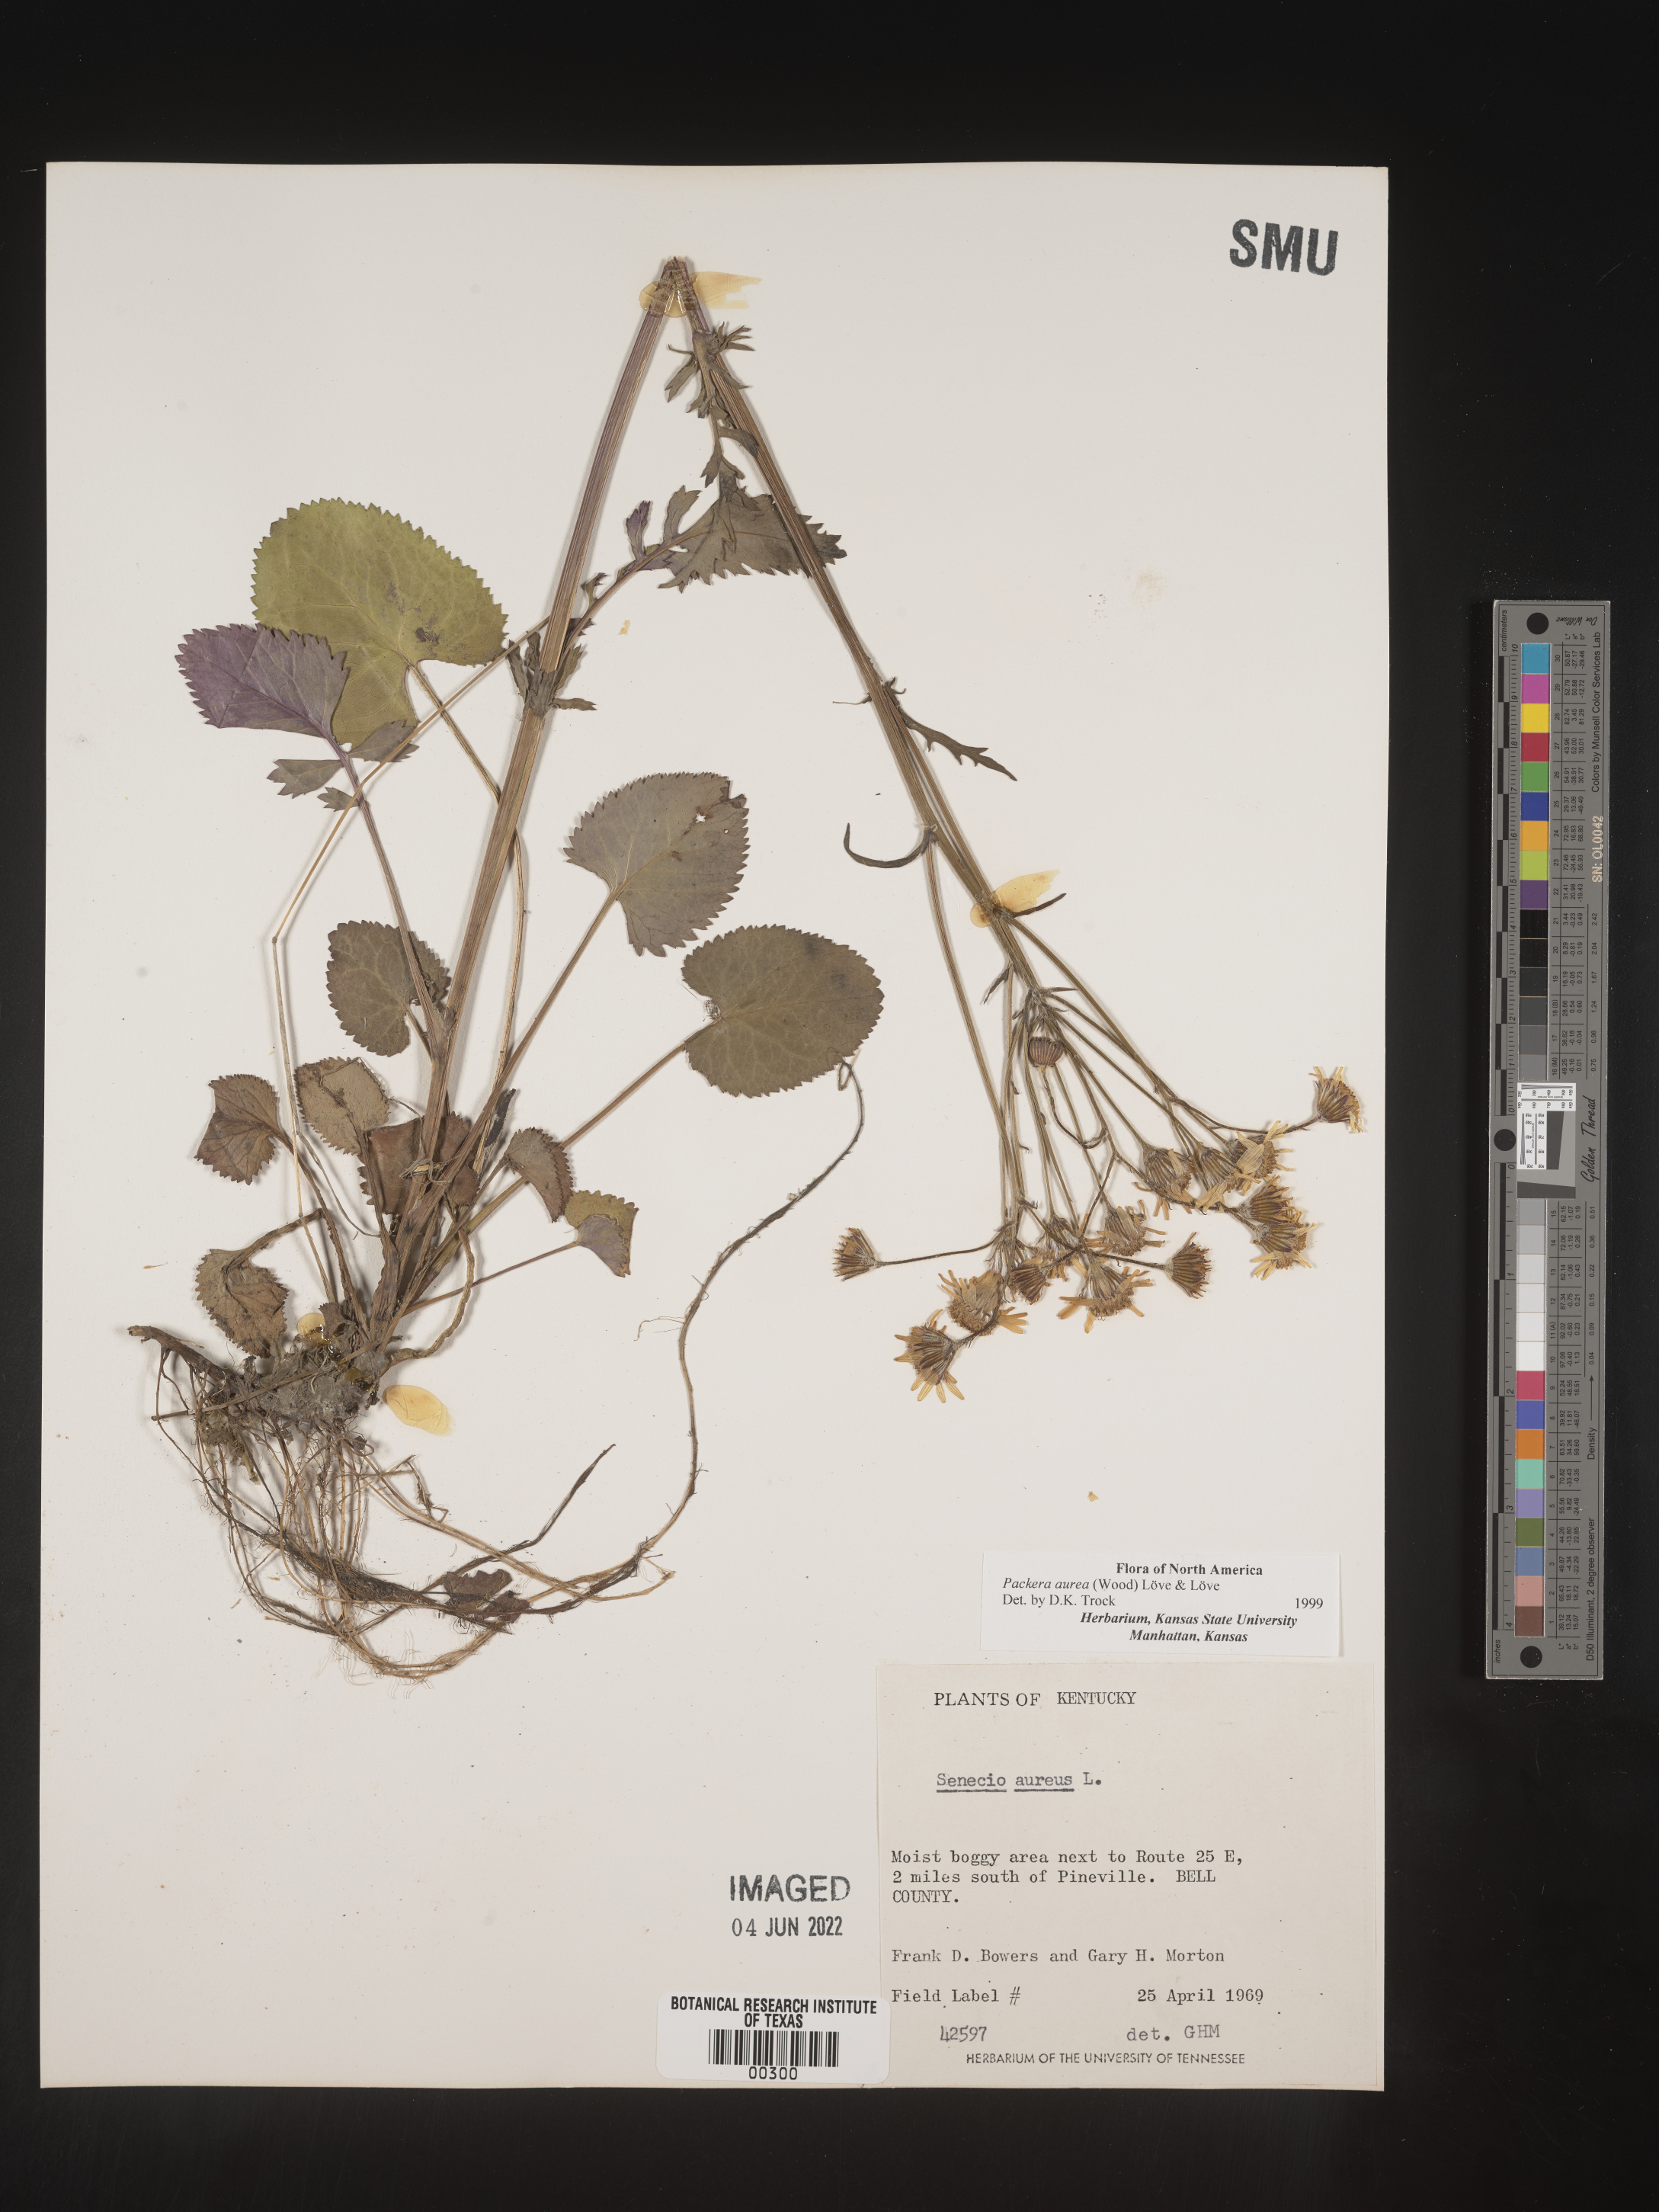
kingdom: Plantae
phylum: Tracheophyta
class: Magnoliopsida
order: Asterales
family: Asteraceae
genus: Packera
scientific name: Packera aurea
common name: Golden groundsel
